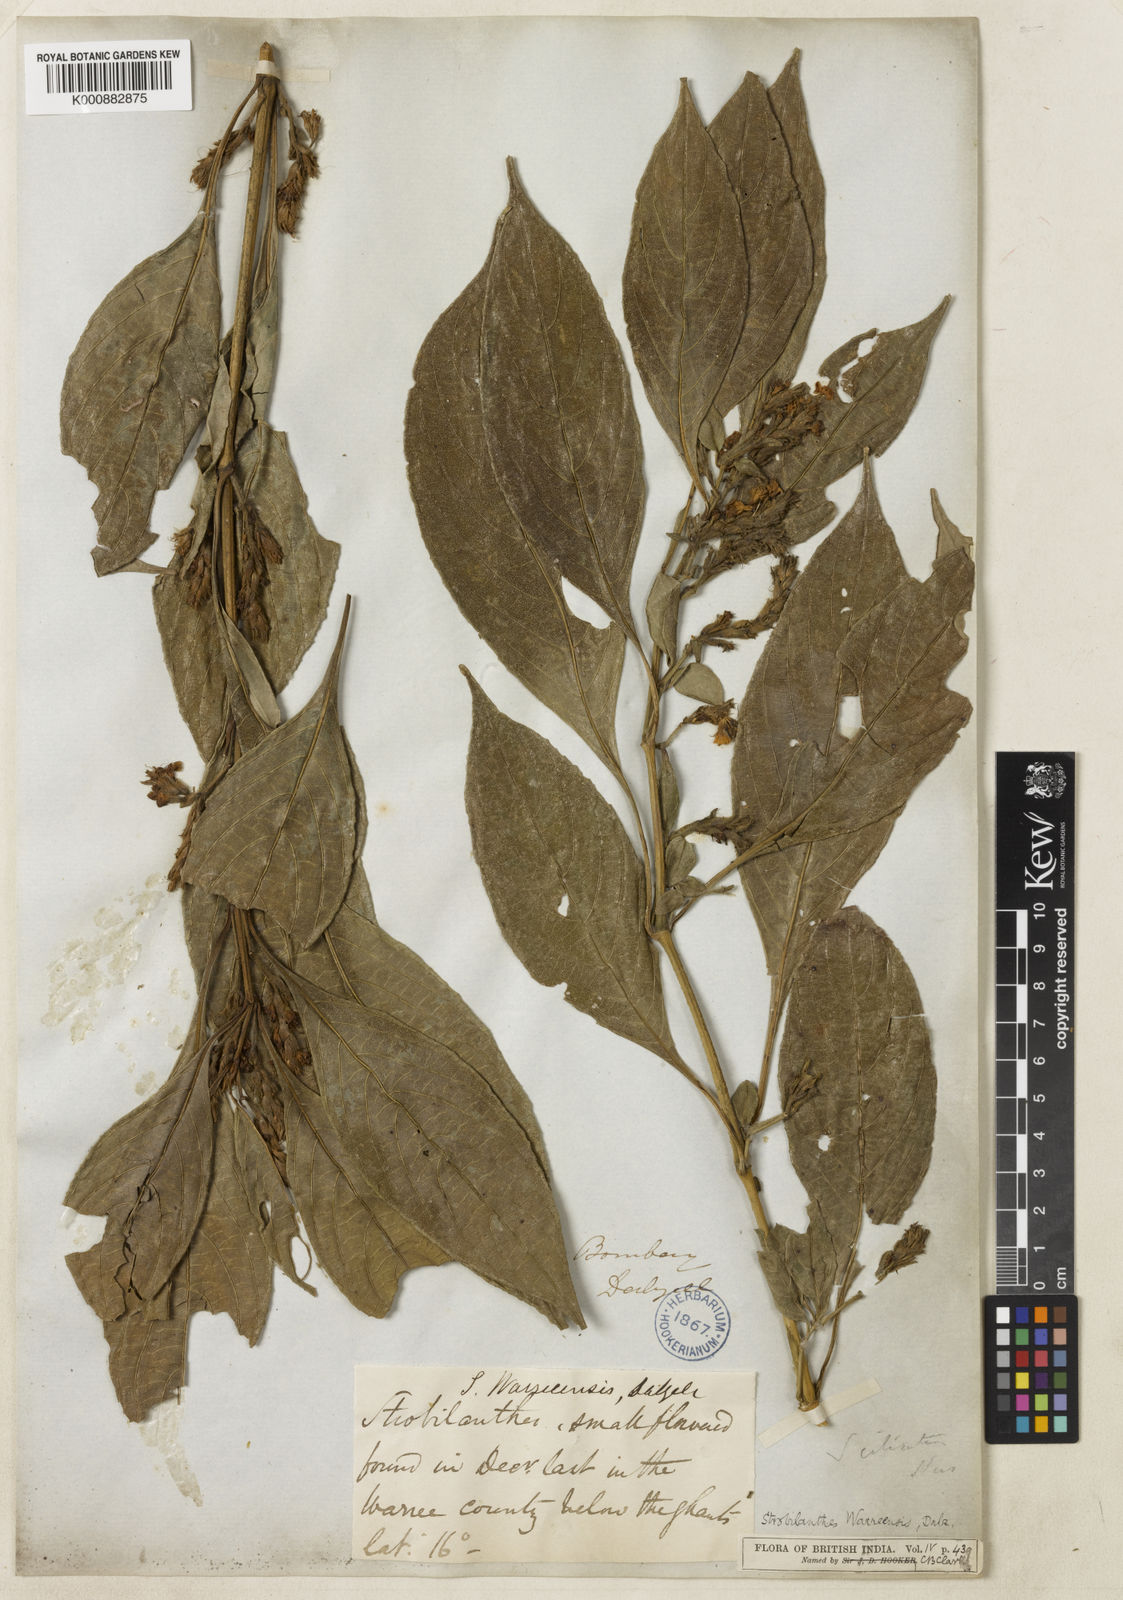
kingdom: Plantae
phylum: Tracheophyta
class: Magnoliopsida
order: Lamiales
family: Acanthaceae
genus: Strobilanthes
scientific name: Strobilanthes ciliata
